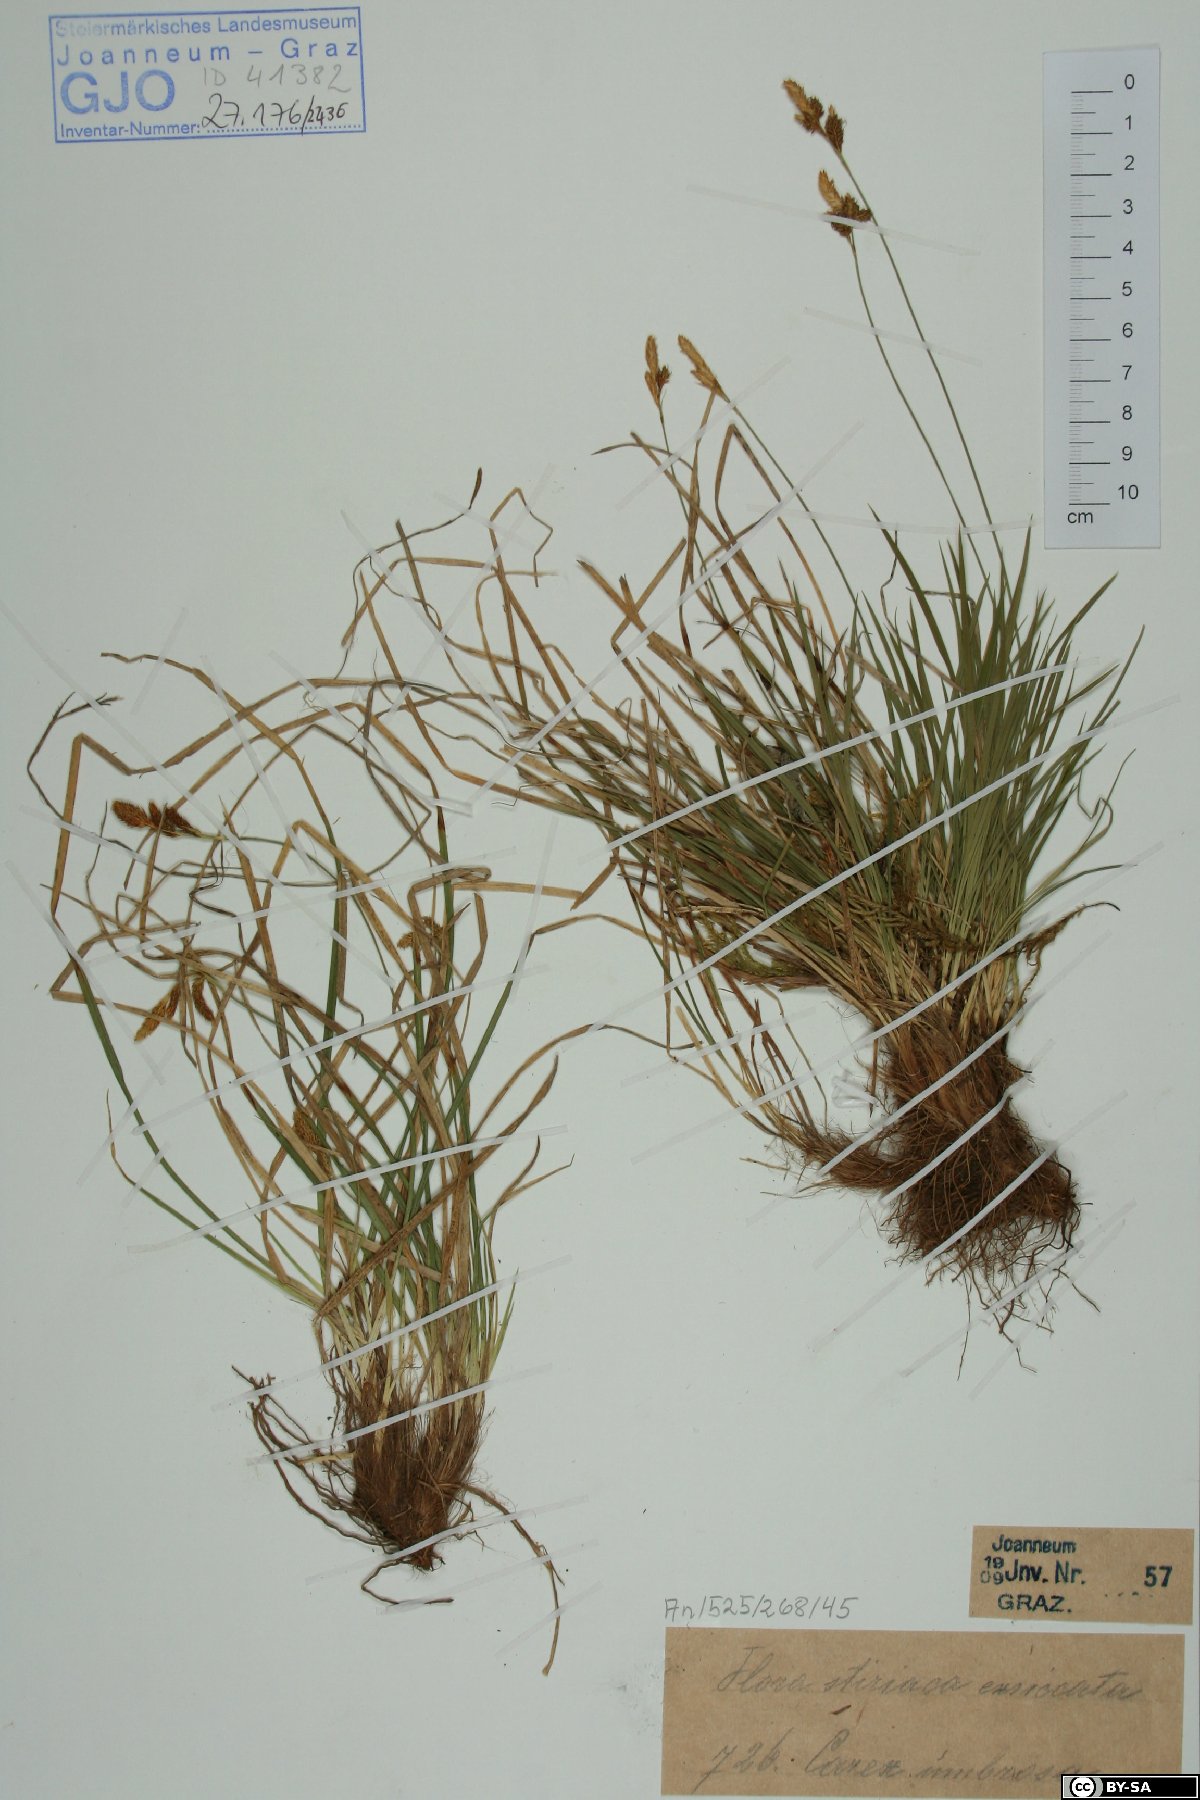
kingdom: Plantae
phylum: Tracheophyta
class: Liliopsida
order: Poales
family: Cyperaceae
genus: Carex
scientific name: Carex umbrosa
